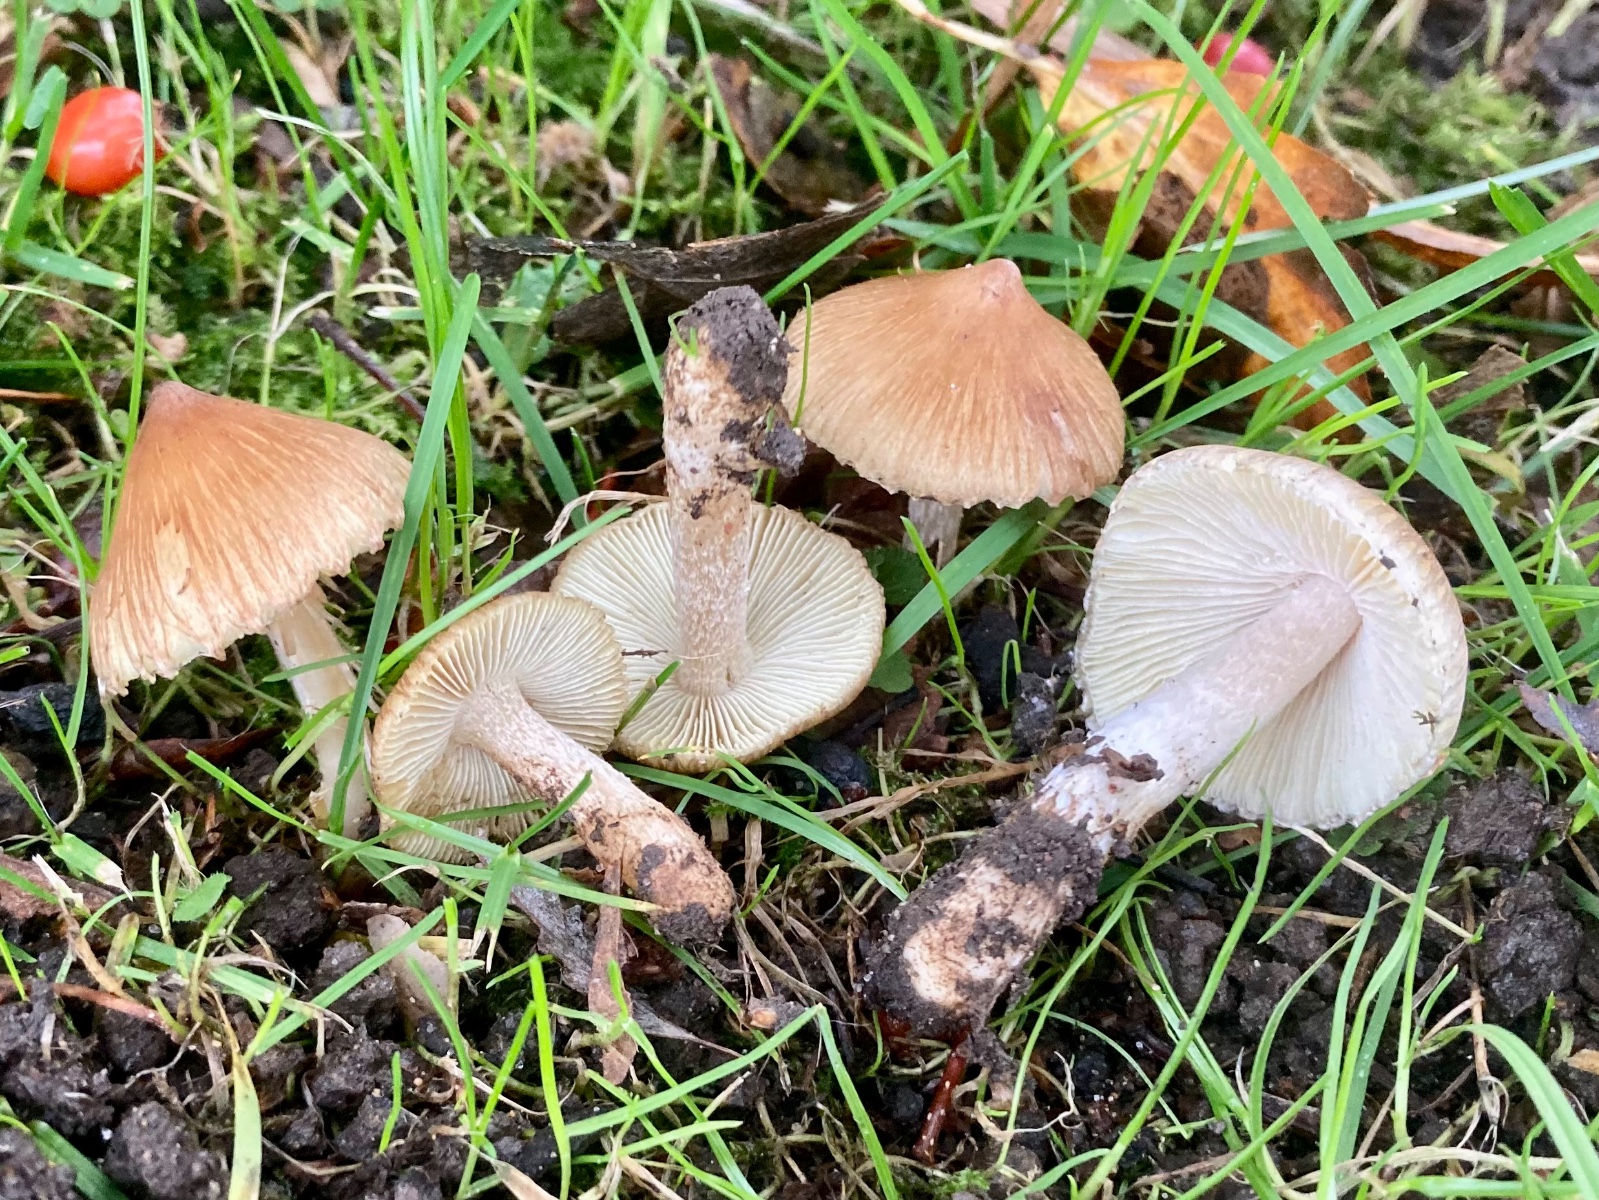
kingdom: Fungi
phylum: Basidiomycota
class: Agaricomycetes
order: Agaricales
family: Inocybaceae
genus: Pseudosperma
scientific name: Pseudosperma
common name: trævlhat
